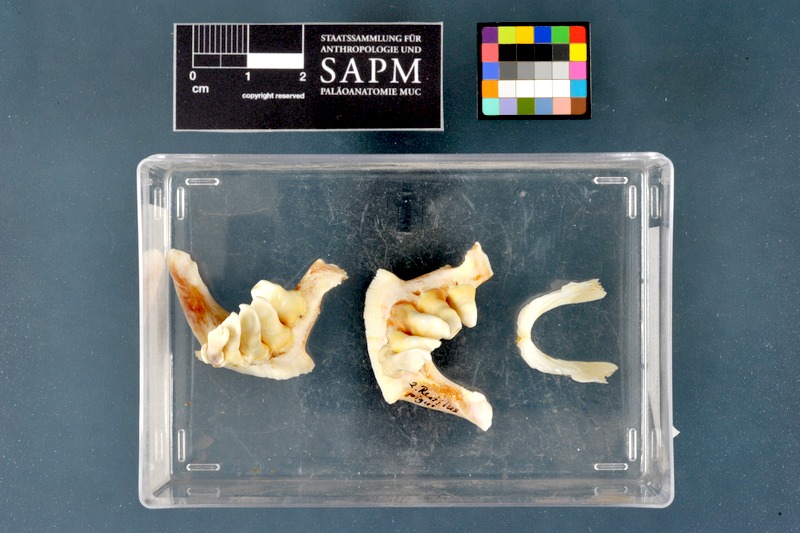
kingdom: Animalia
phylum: Chordata
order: Cypriniformes
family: Cyprinidae
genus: Rutilus
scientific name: Rutilus pigus
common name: Danube roach
